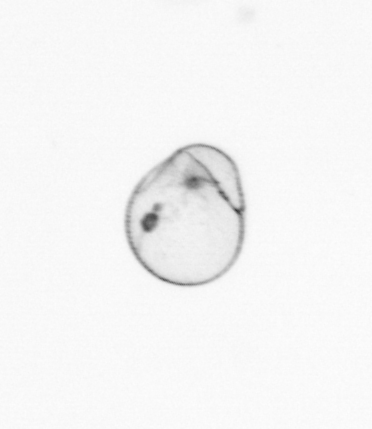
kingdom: Chromista
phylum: Myzozoa
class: Dinophyceae
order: Noctilucales
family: Noctilucaceae
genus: Noctiluca
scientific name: Noctiluca scintillans
